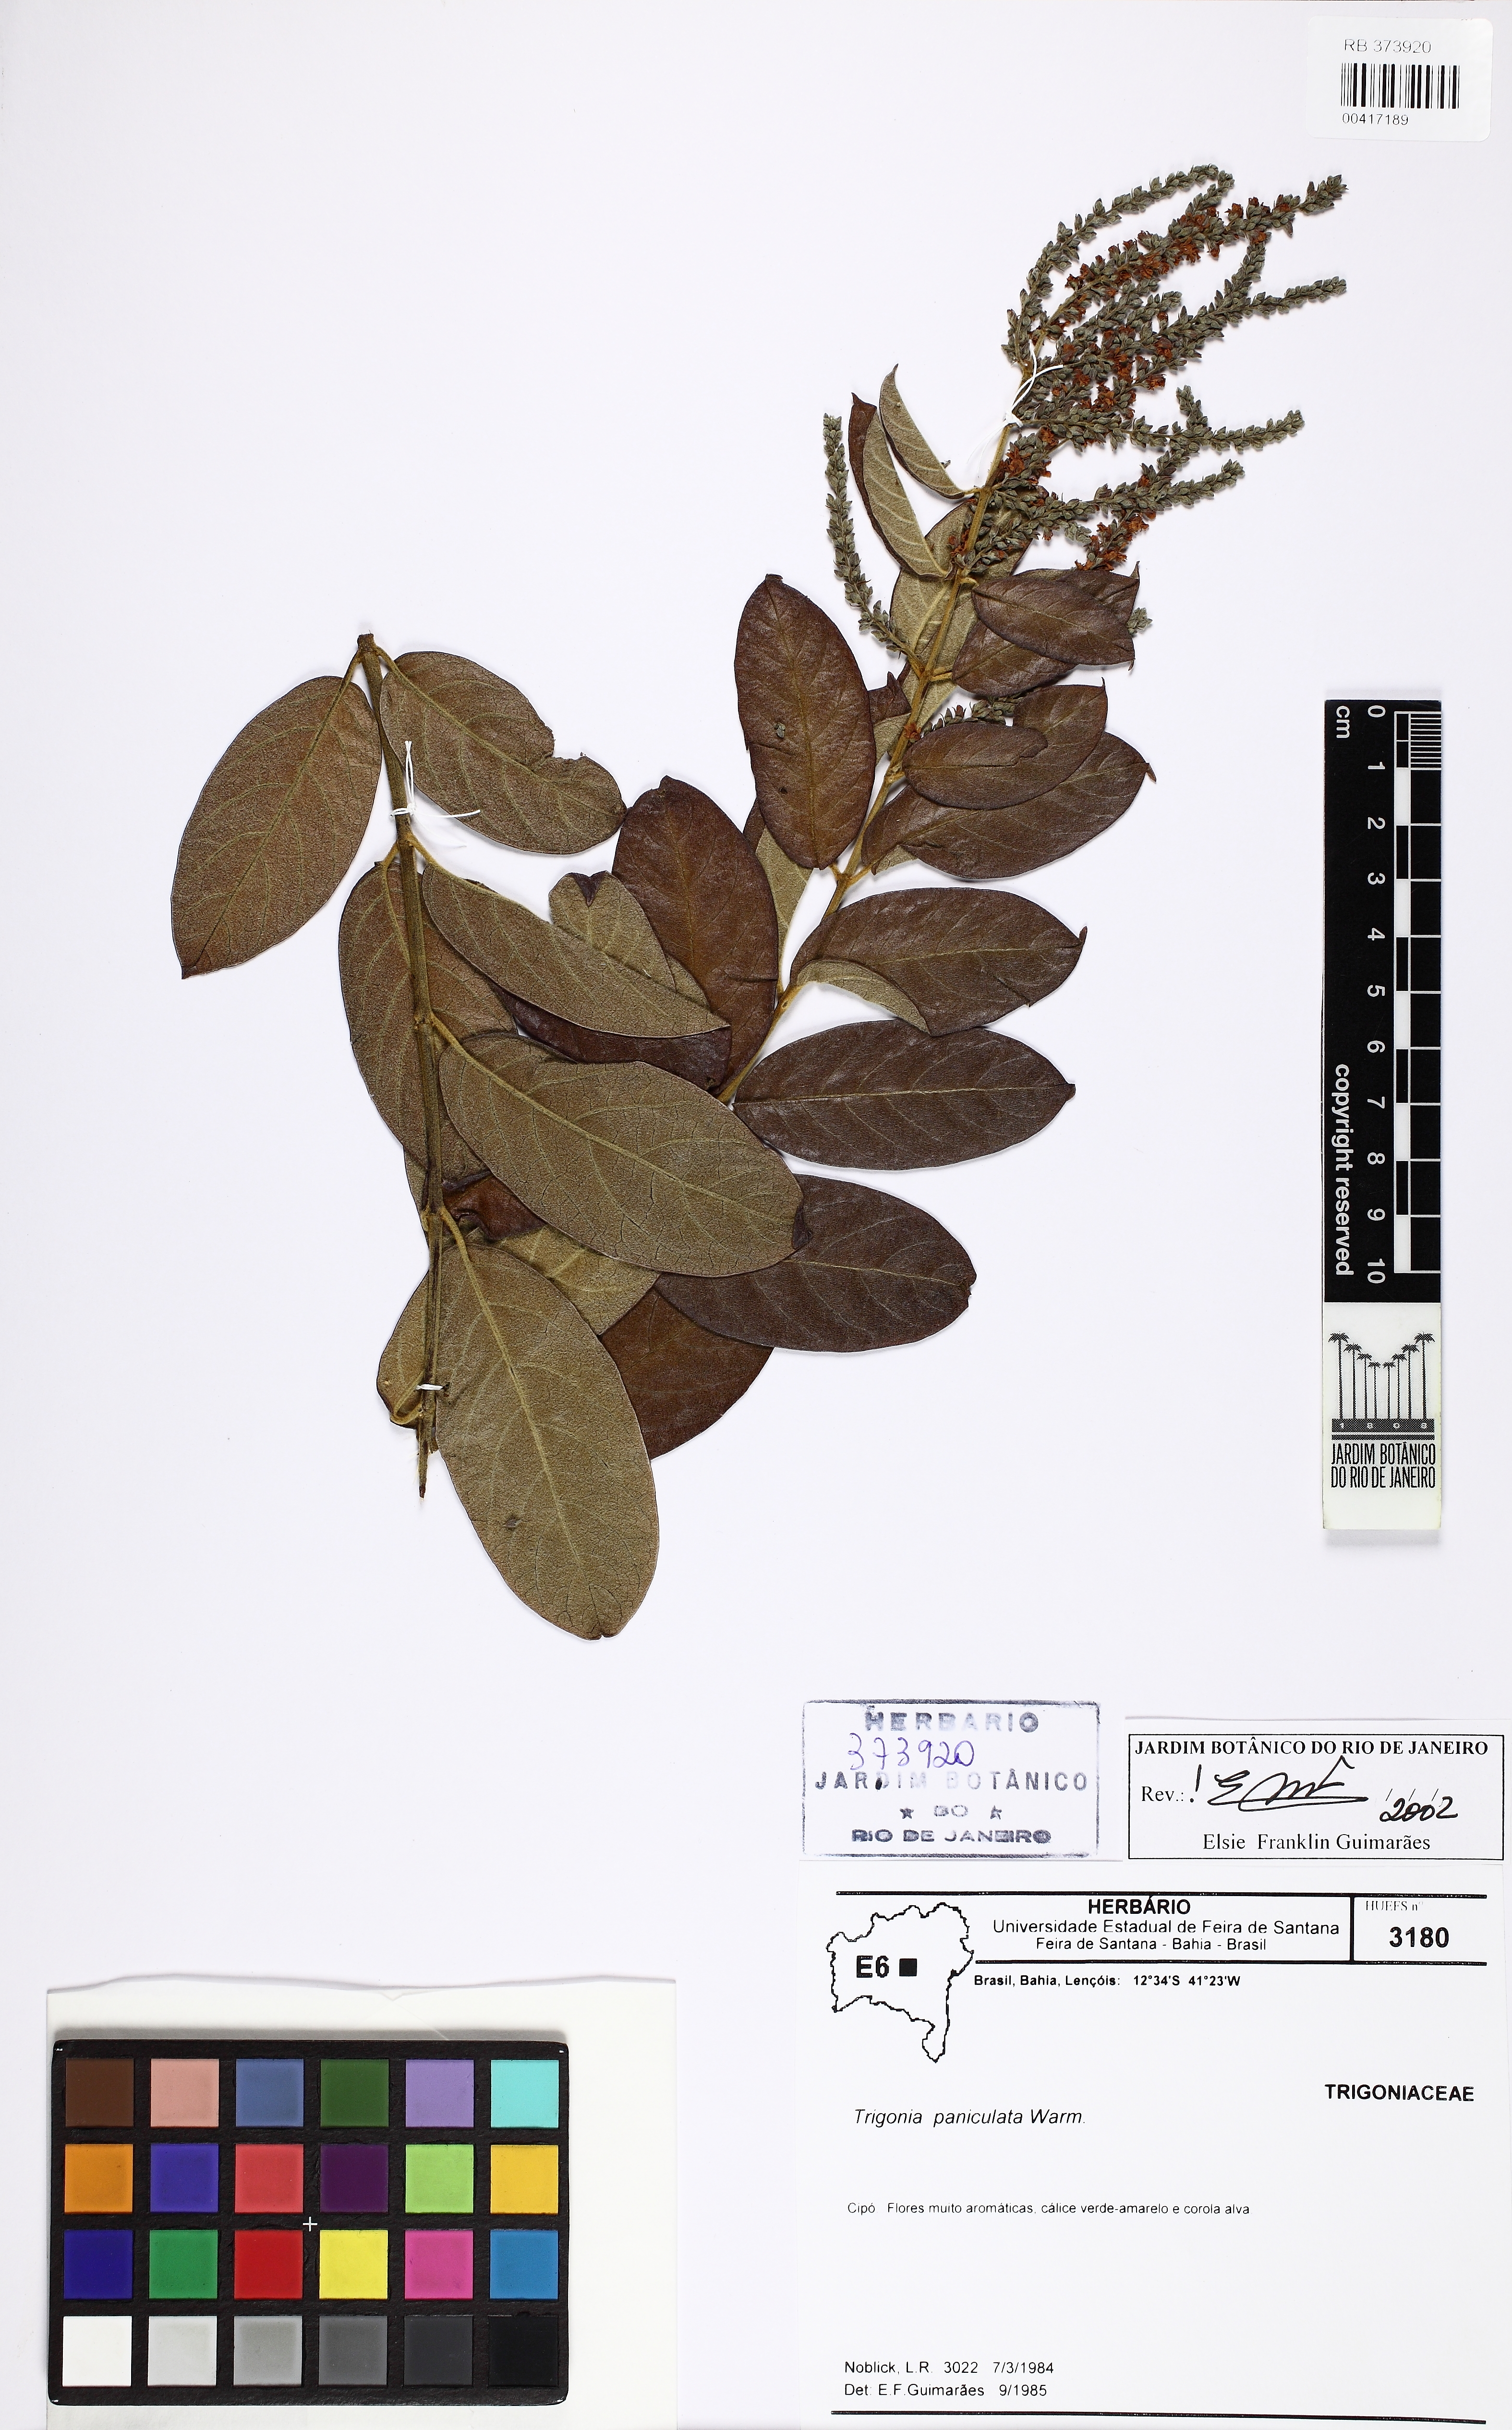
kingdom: Plantae
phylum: Tracheophyta
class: Magnoliopsida
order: Malpighiales
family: Trigoniaceae
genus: Trigonia
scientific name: Trigonia paniculata
